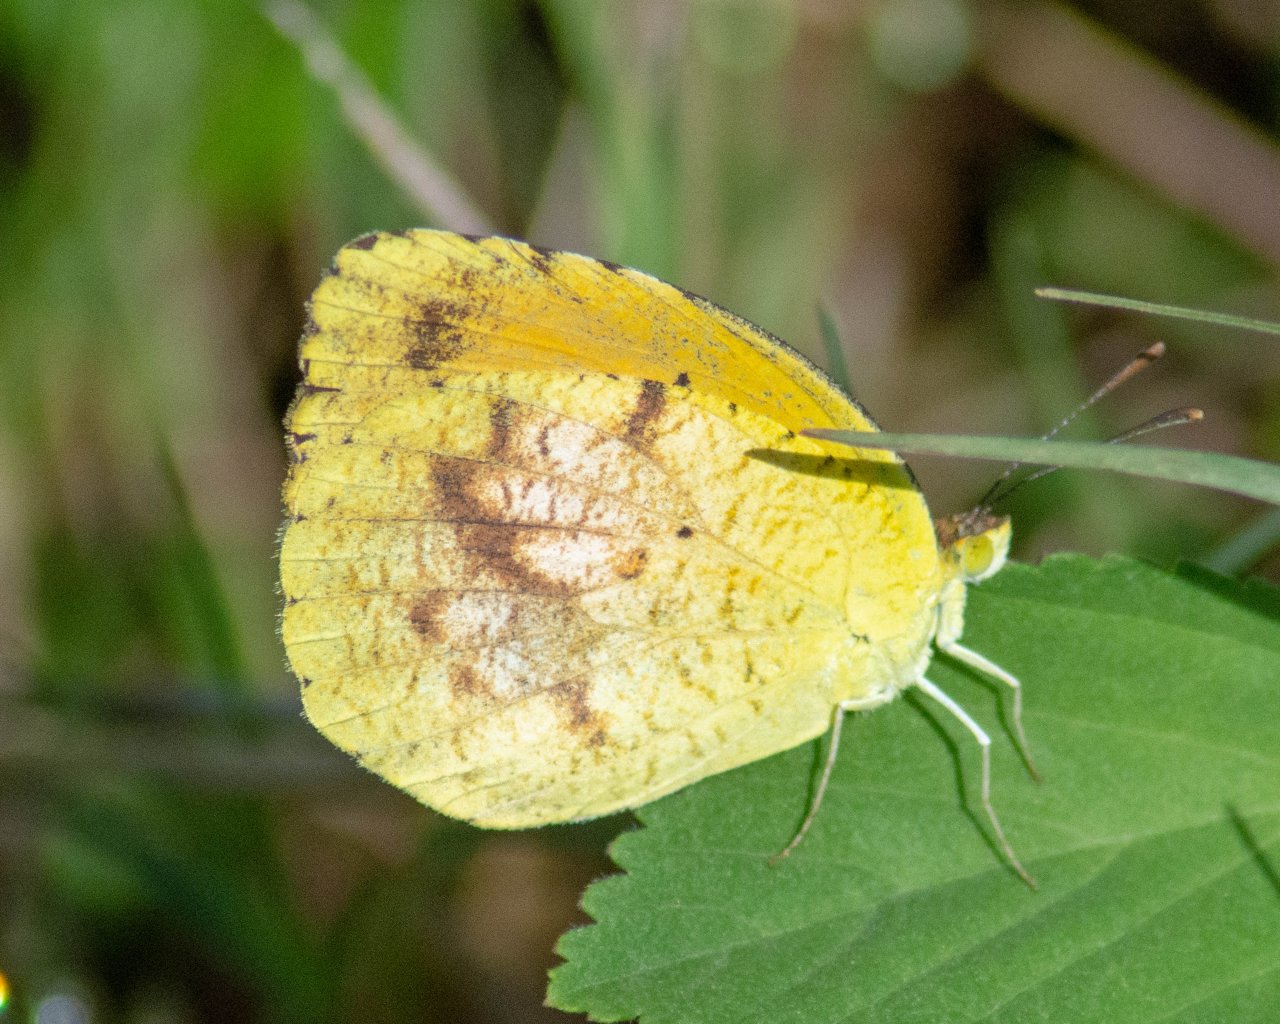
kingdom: Animalia
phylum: Arthropoda
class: Insecta
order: Lepidoptera
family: Pieridae
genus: Abaeis
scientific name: Abaeis nicippe
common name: Sleepy Orange
